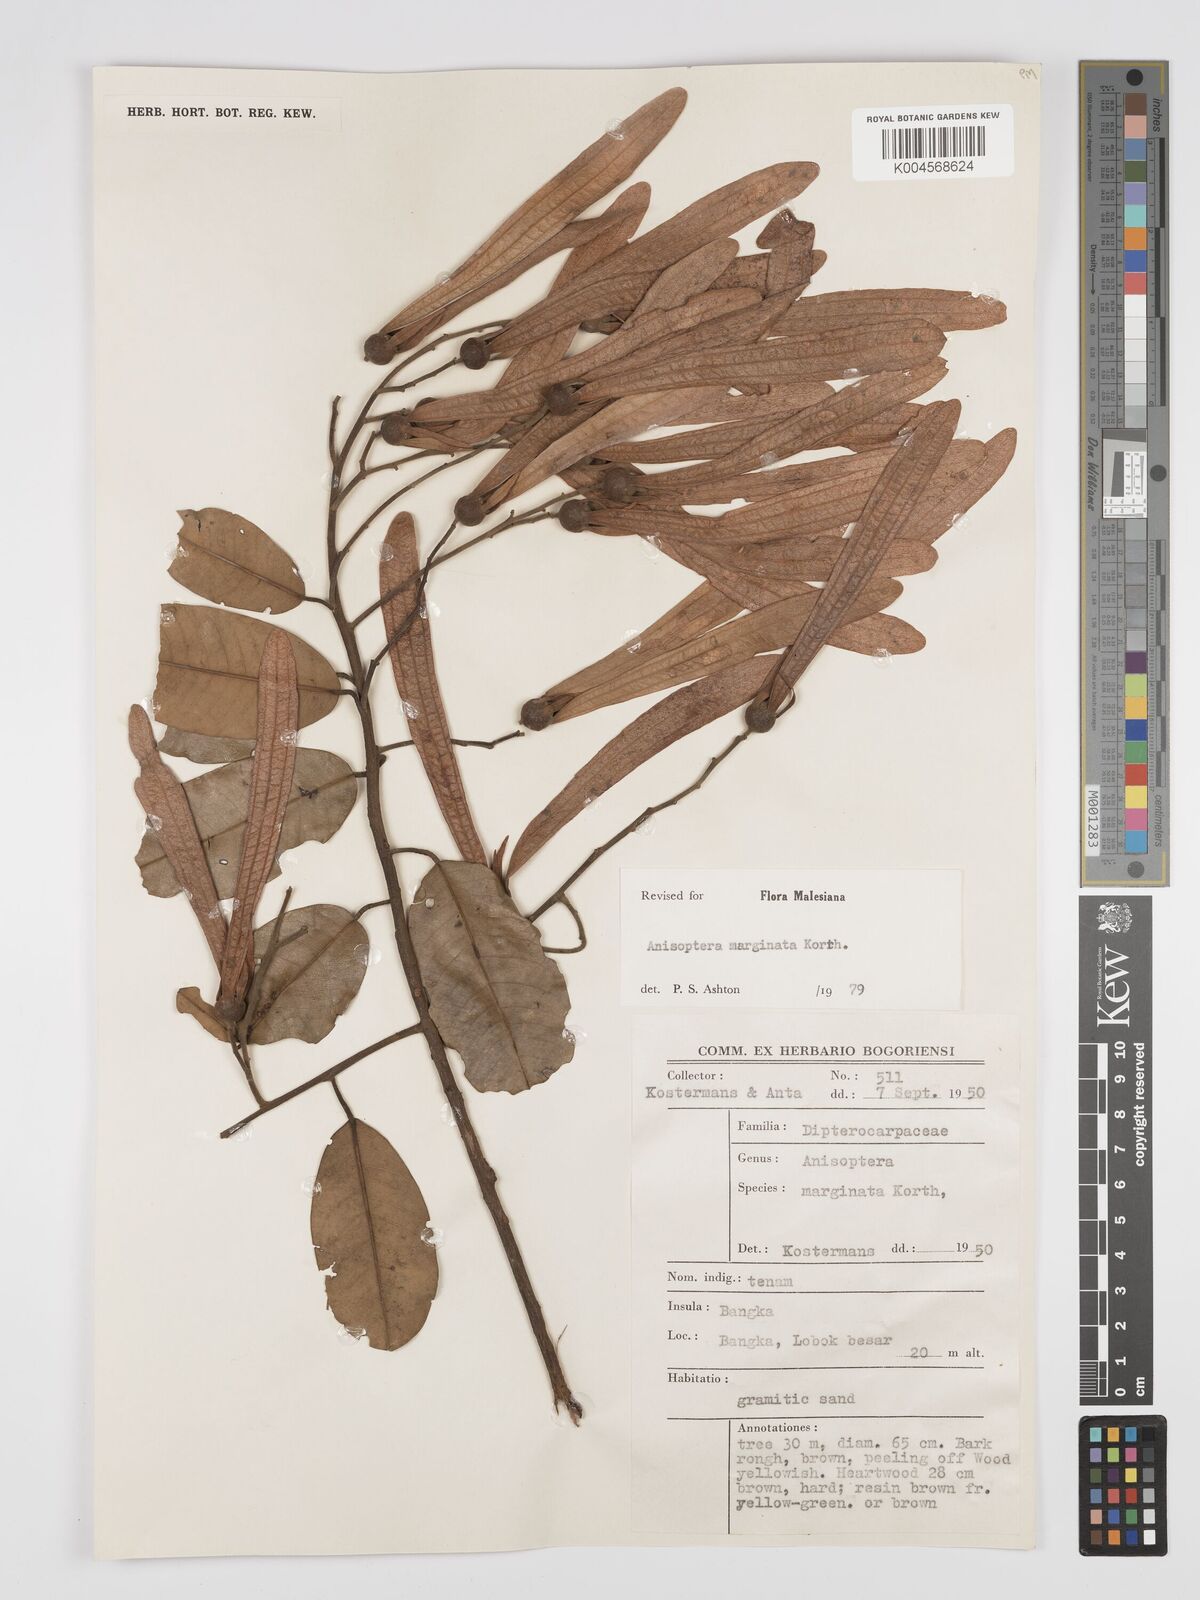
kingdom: Plantae
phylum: Tracheophyta
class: Magnoliopsida
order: Malvales
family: Dipterocarpaceae
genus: Anisoptera
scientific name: Anisoptera marginata
